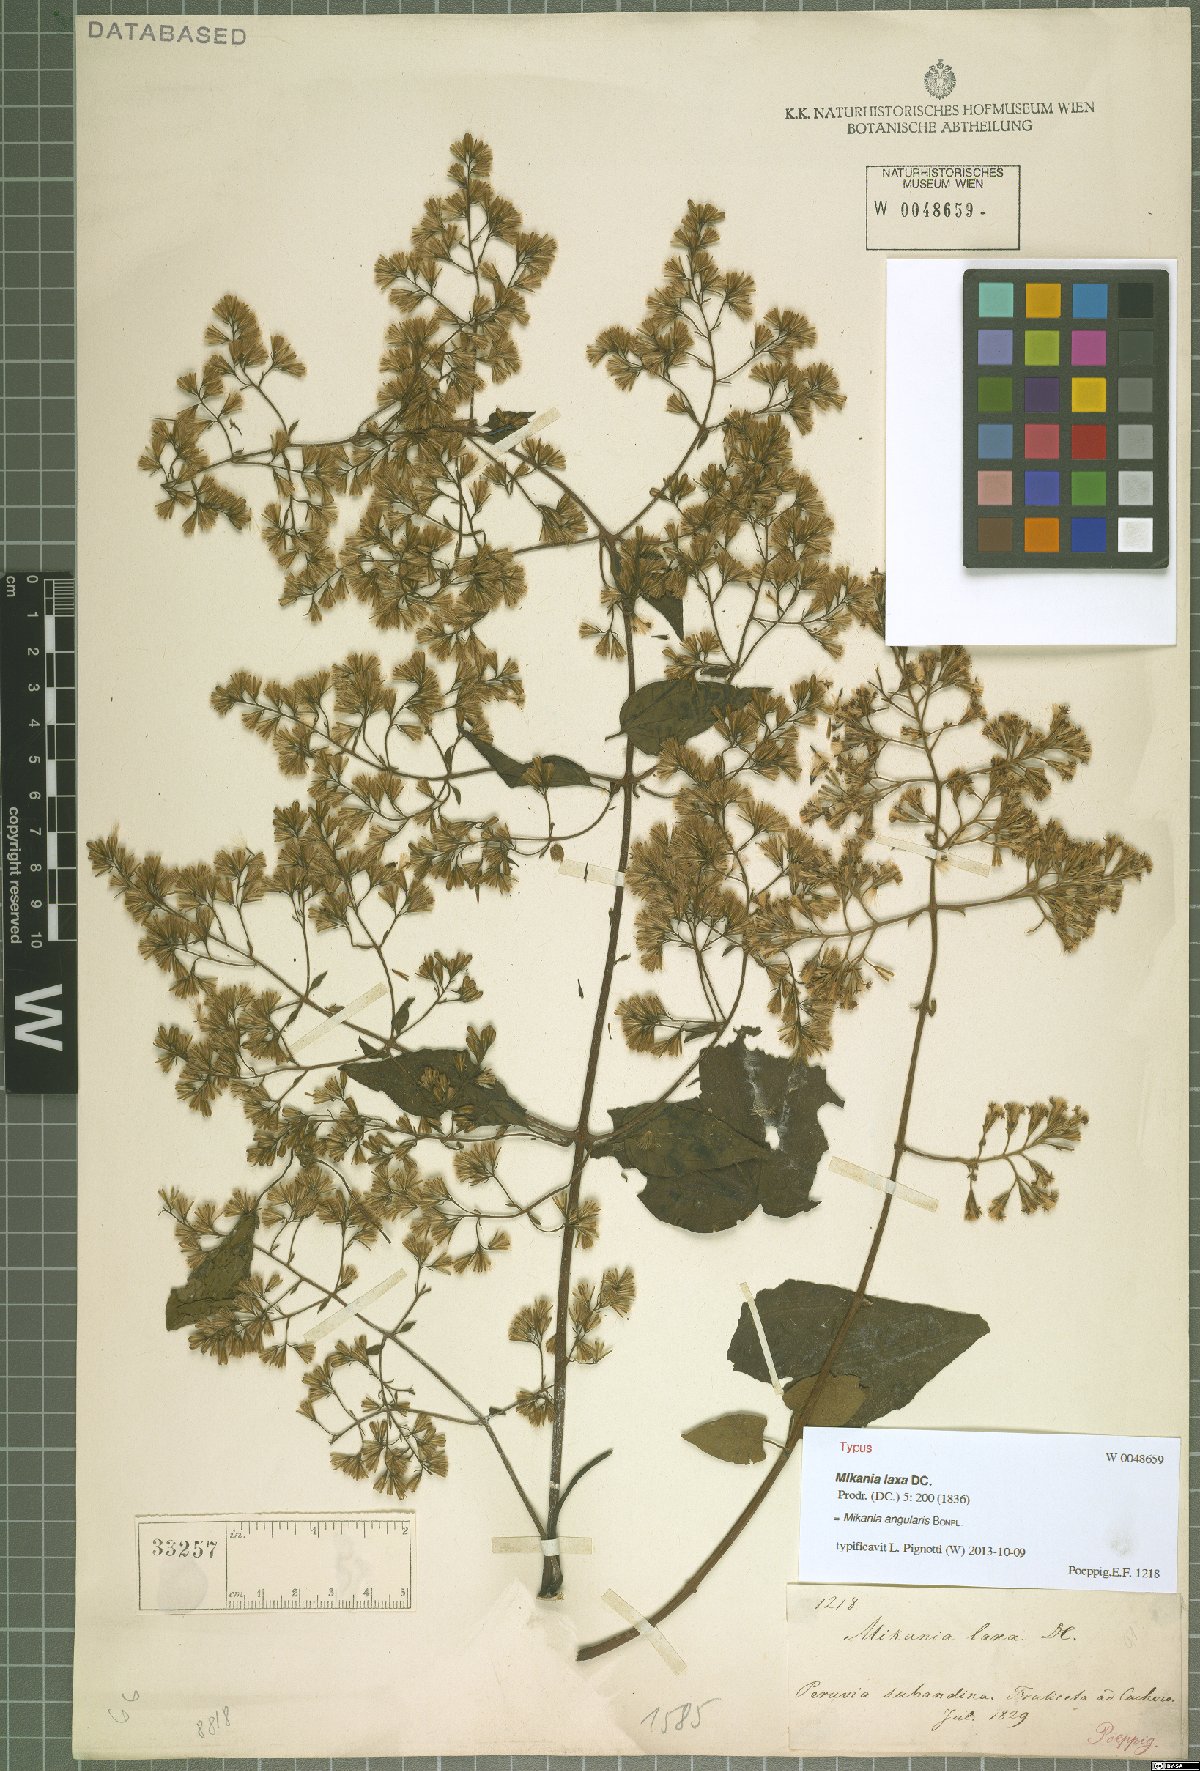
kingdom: Plantae
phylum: Tracheophyta
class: Magnoliopsida
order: Asterales
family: Asteraceae
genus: Mikania
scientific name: Mikania angularis
